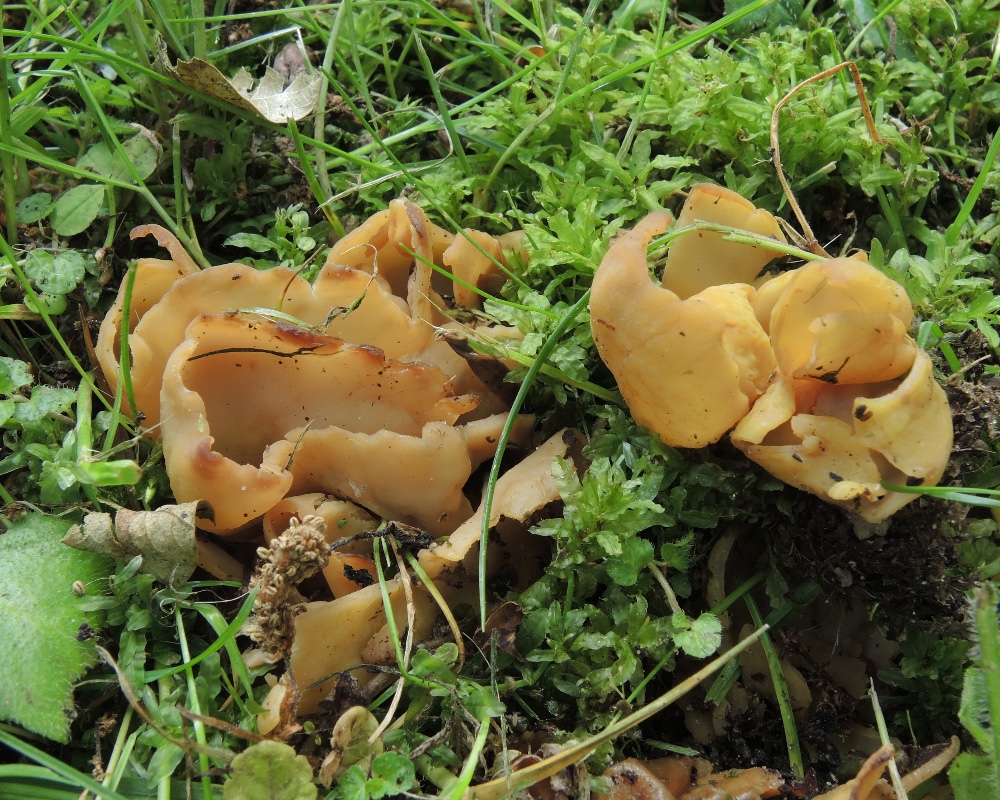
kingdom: Fungi
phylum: Ascomycota
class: Pezizomycetes
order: Pezizales
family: Otideaceae
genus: Otidea
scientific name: Otidea minor
